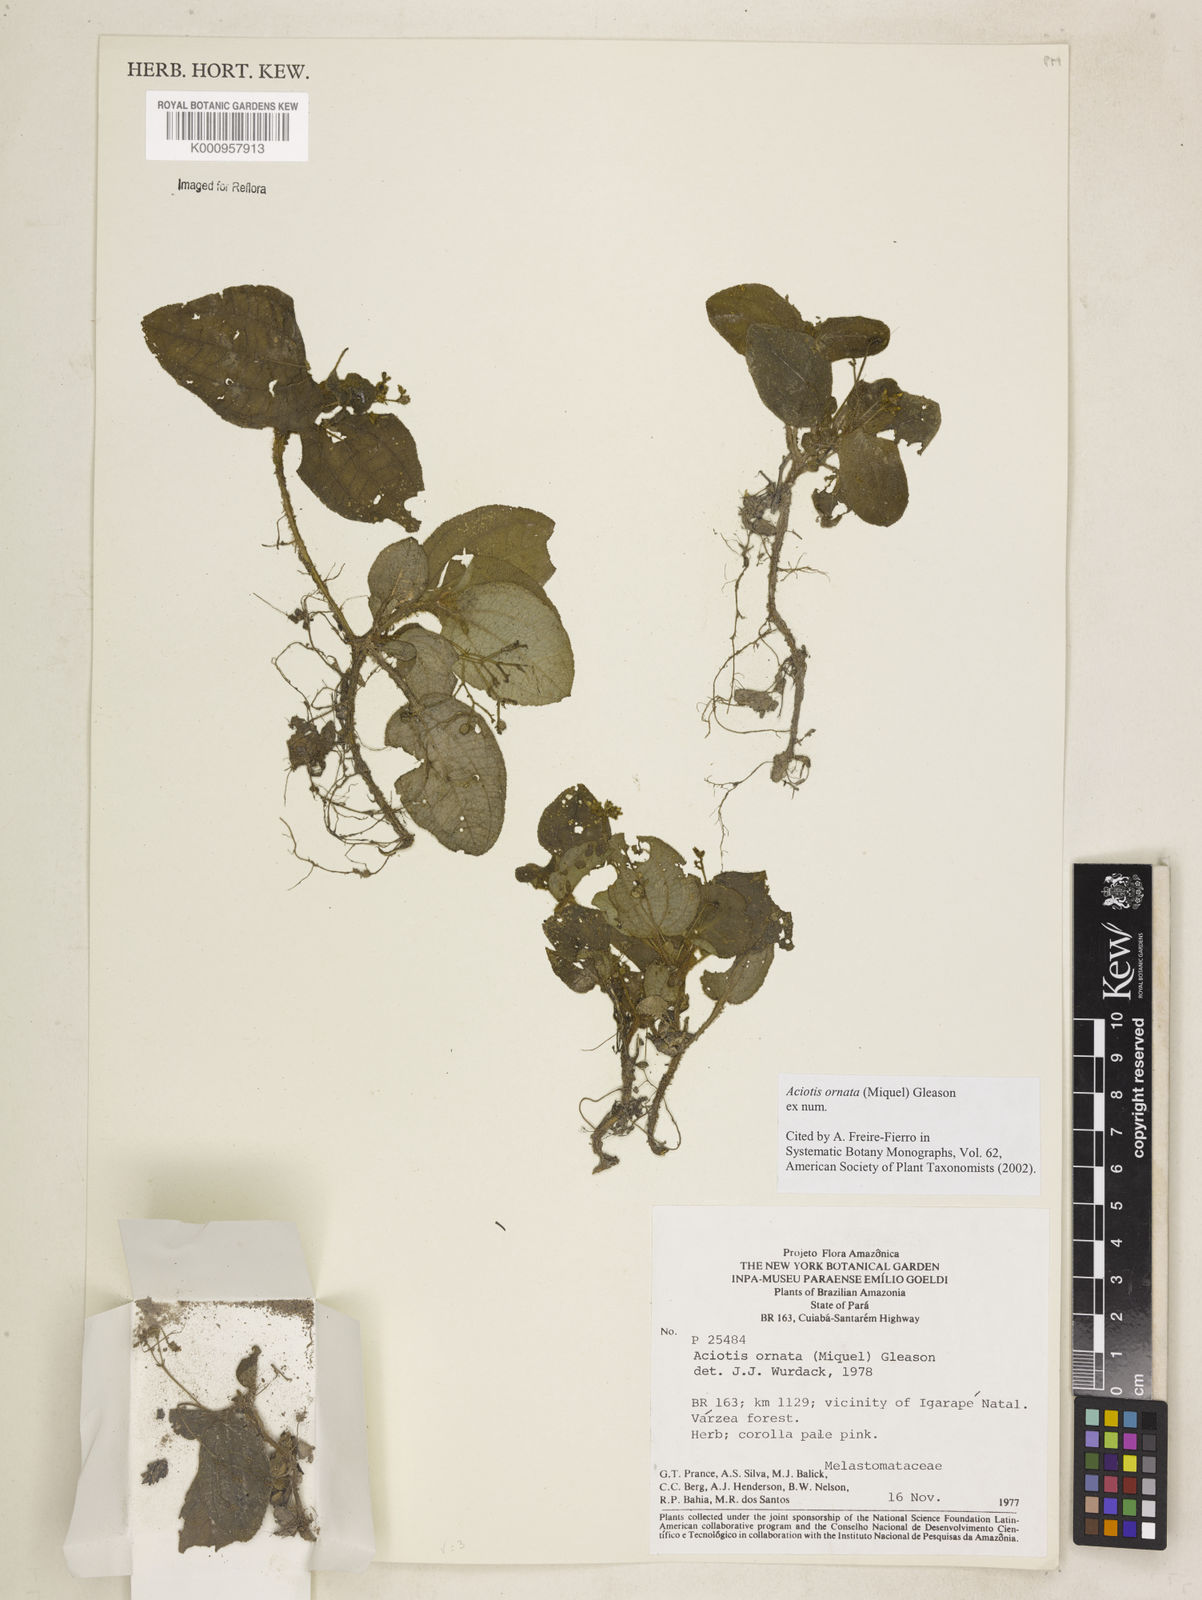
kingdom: Plantae
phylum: Tracheophyta
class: Magnoliopsida
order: Myrtales
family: Melastomataceae
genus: Aciotis
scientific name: Aciotis ornata
